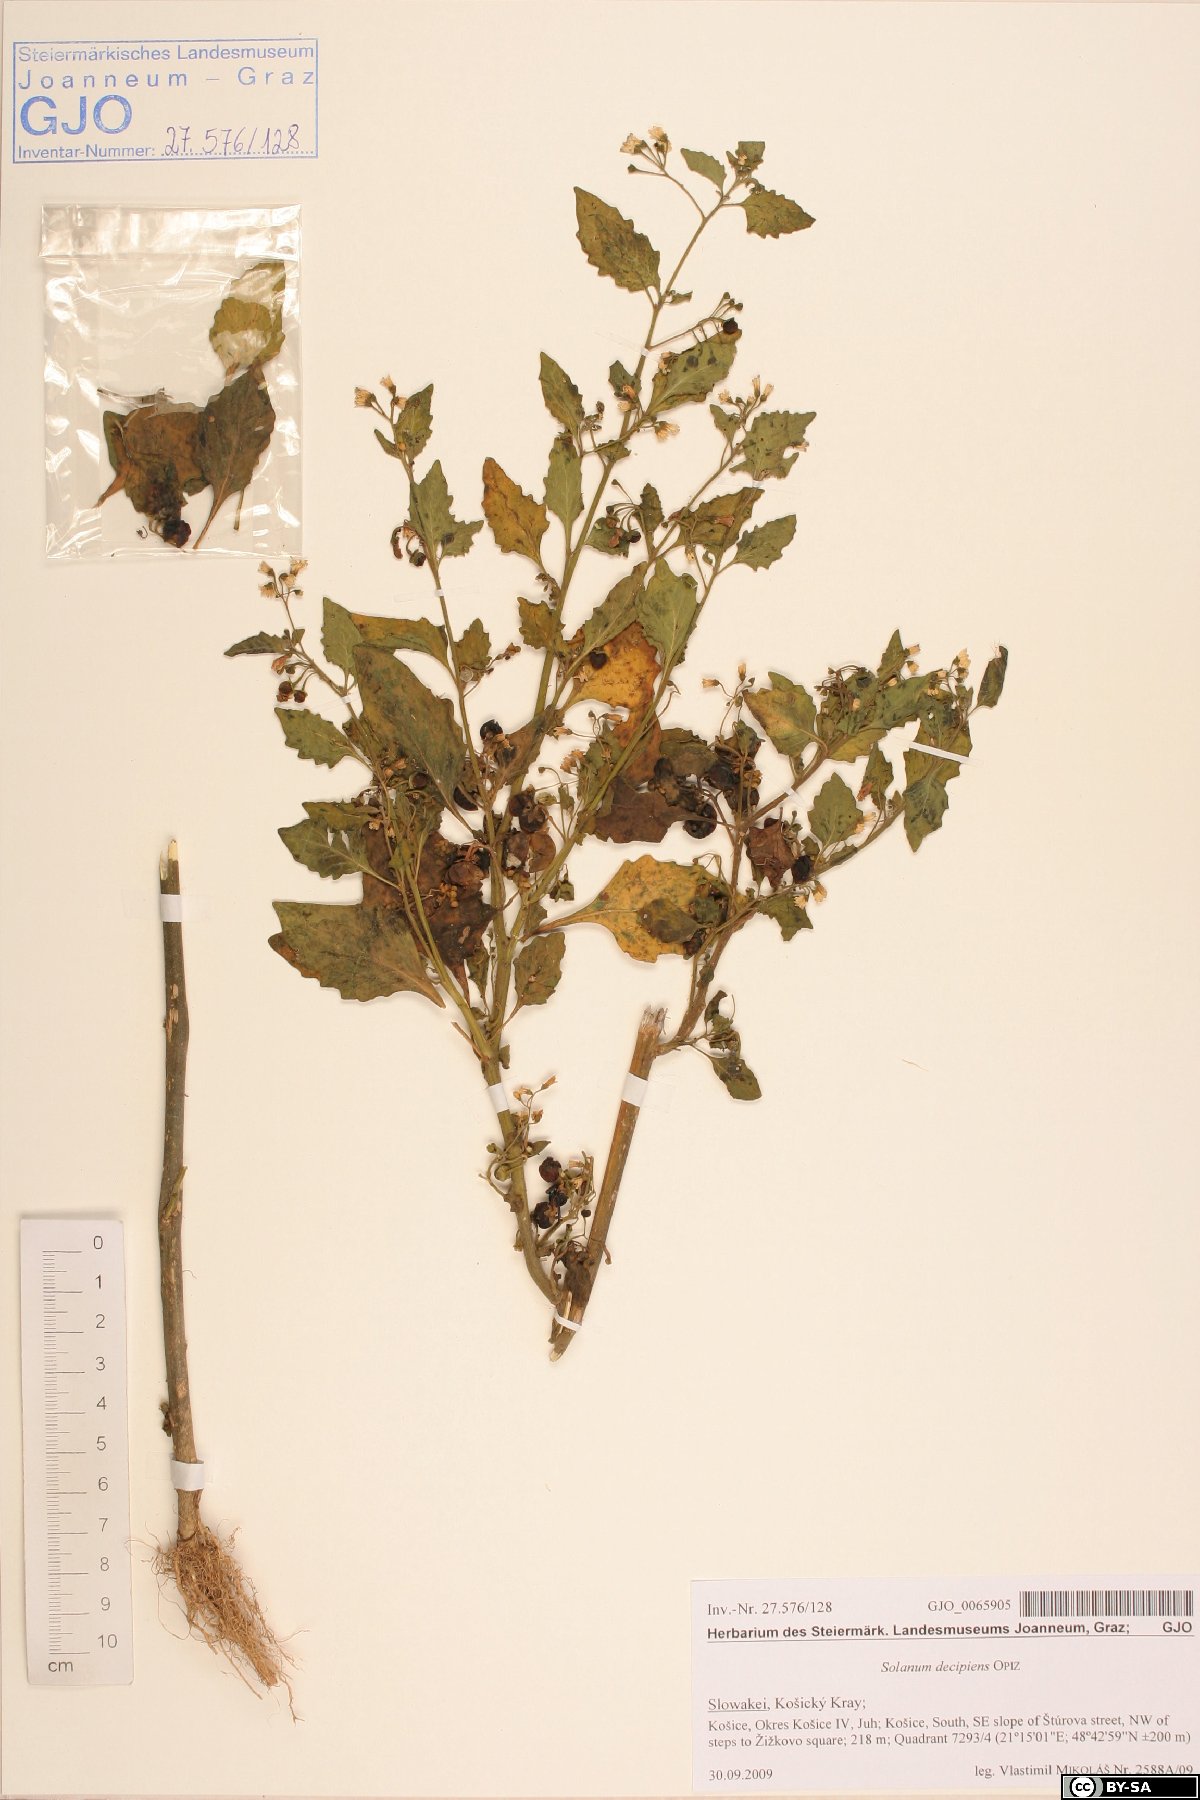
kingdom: Plantae
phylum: Tracheophyta
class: Magnoliopsida
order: Solanales
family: Solanaceae
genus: Solanum
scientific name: Solanum decipiens
